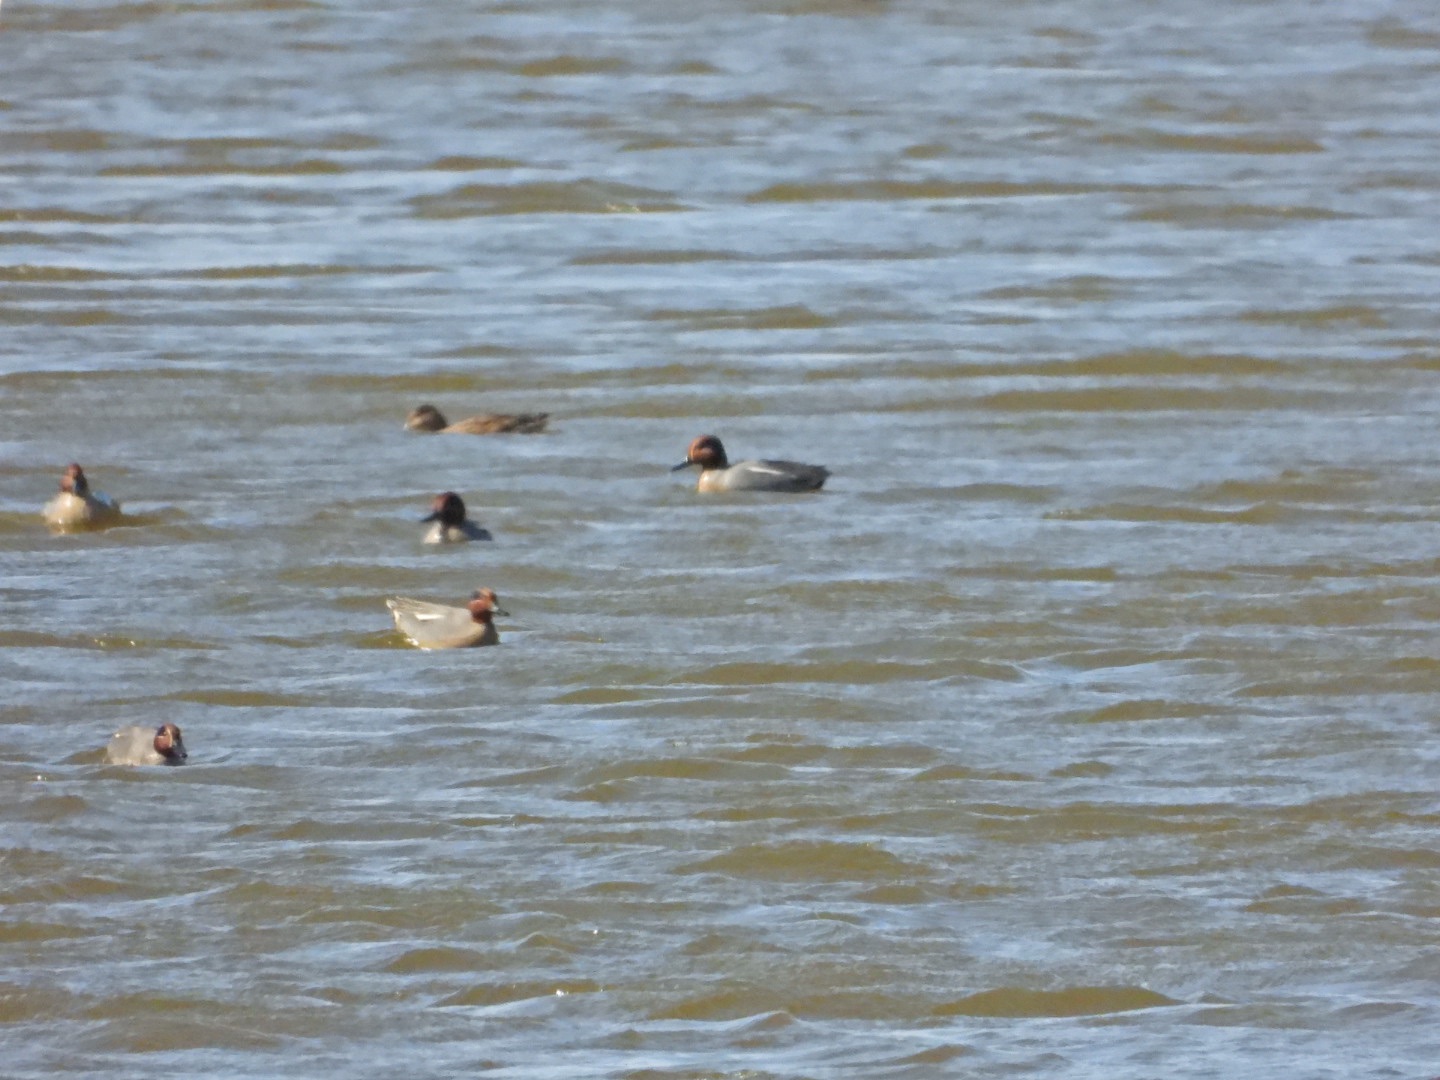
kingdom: Animalia
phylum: Chordata
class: Aves
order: Anseriformes
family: Anatidae
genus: Anas
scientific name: Anas crecca
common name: Krikand
